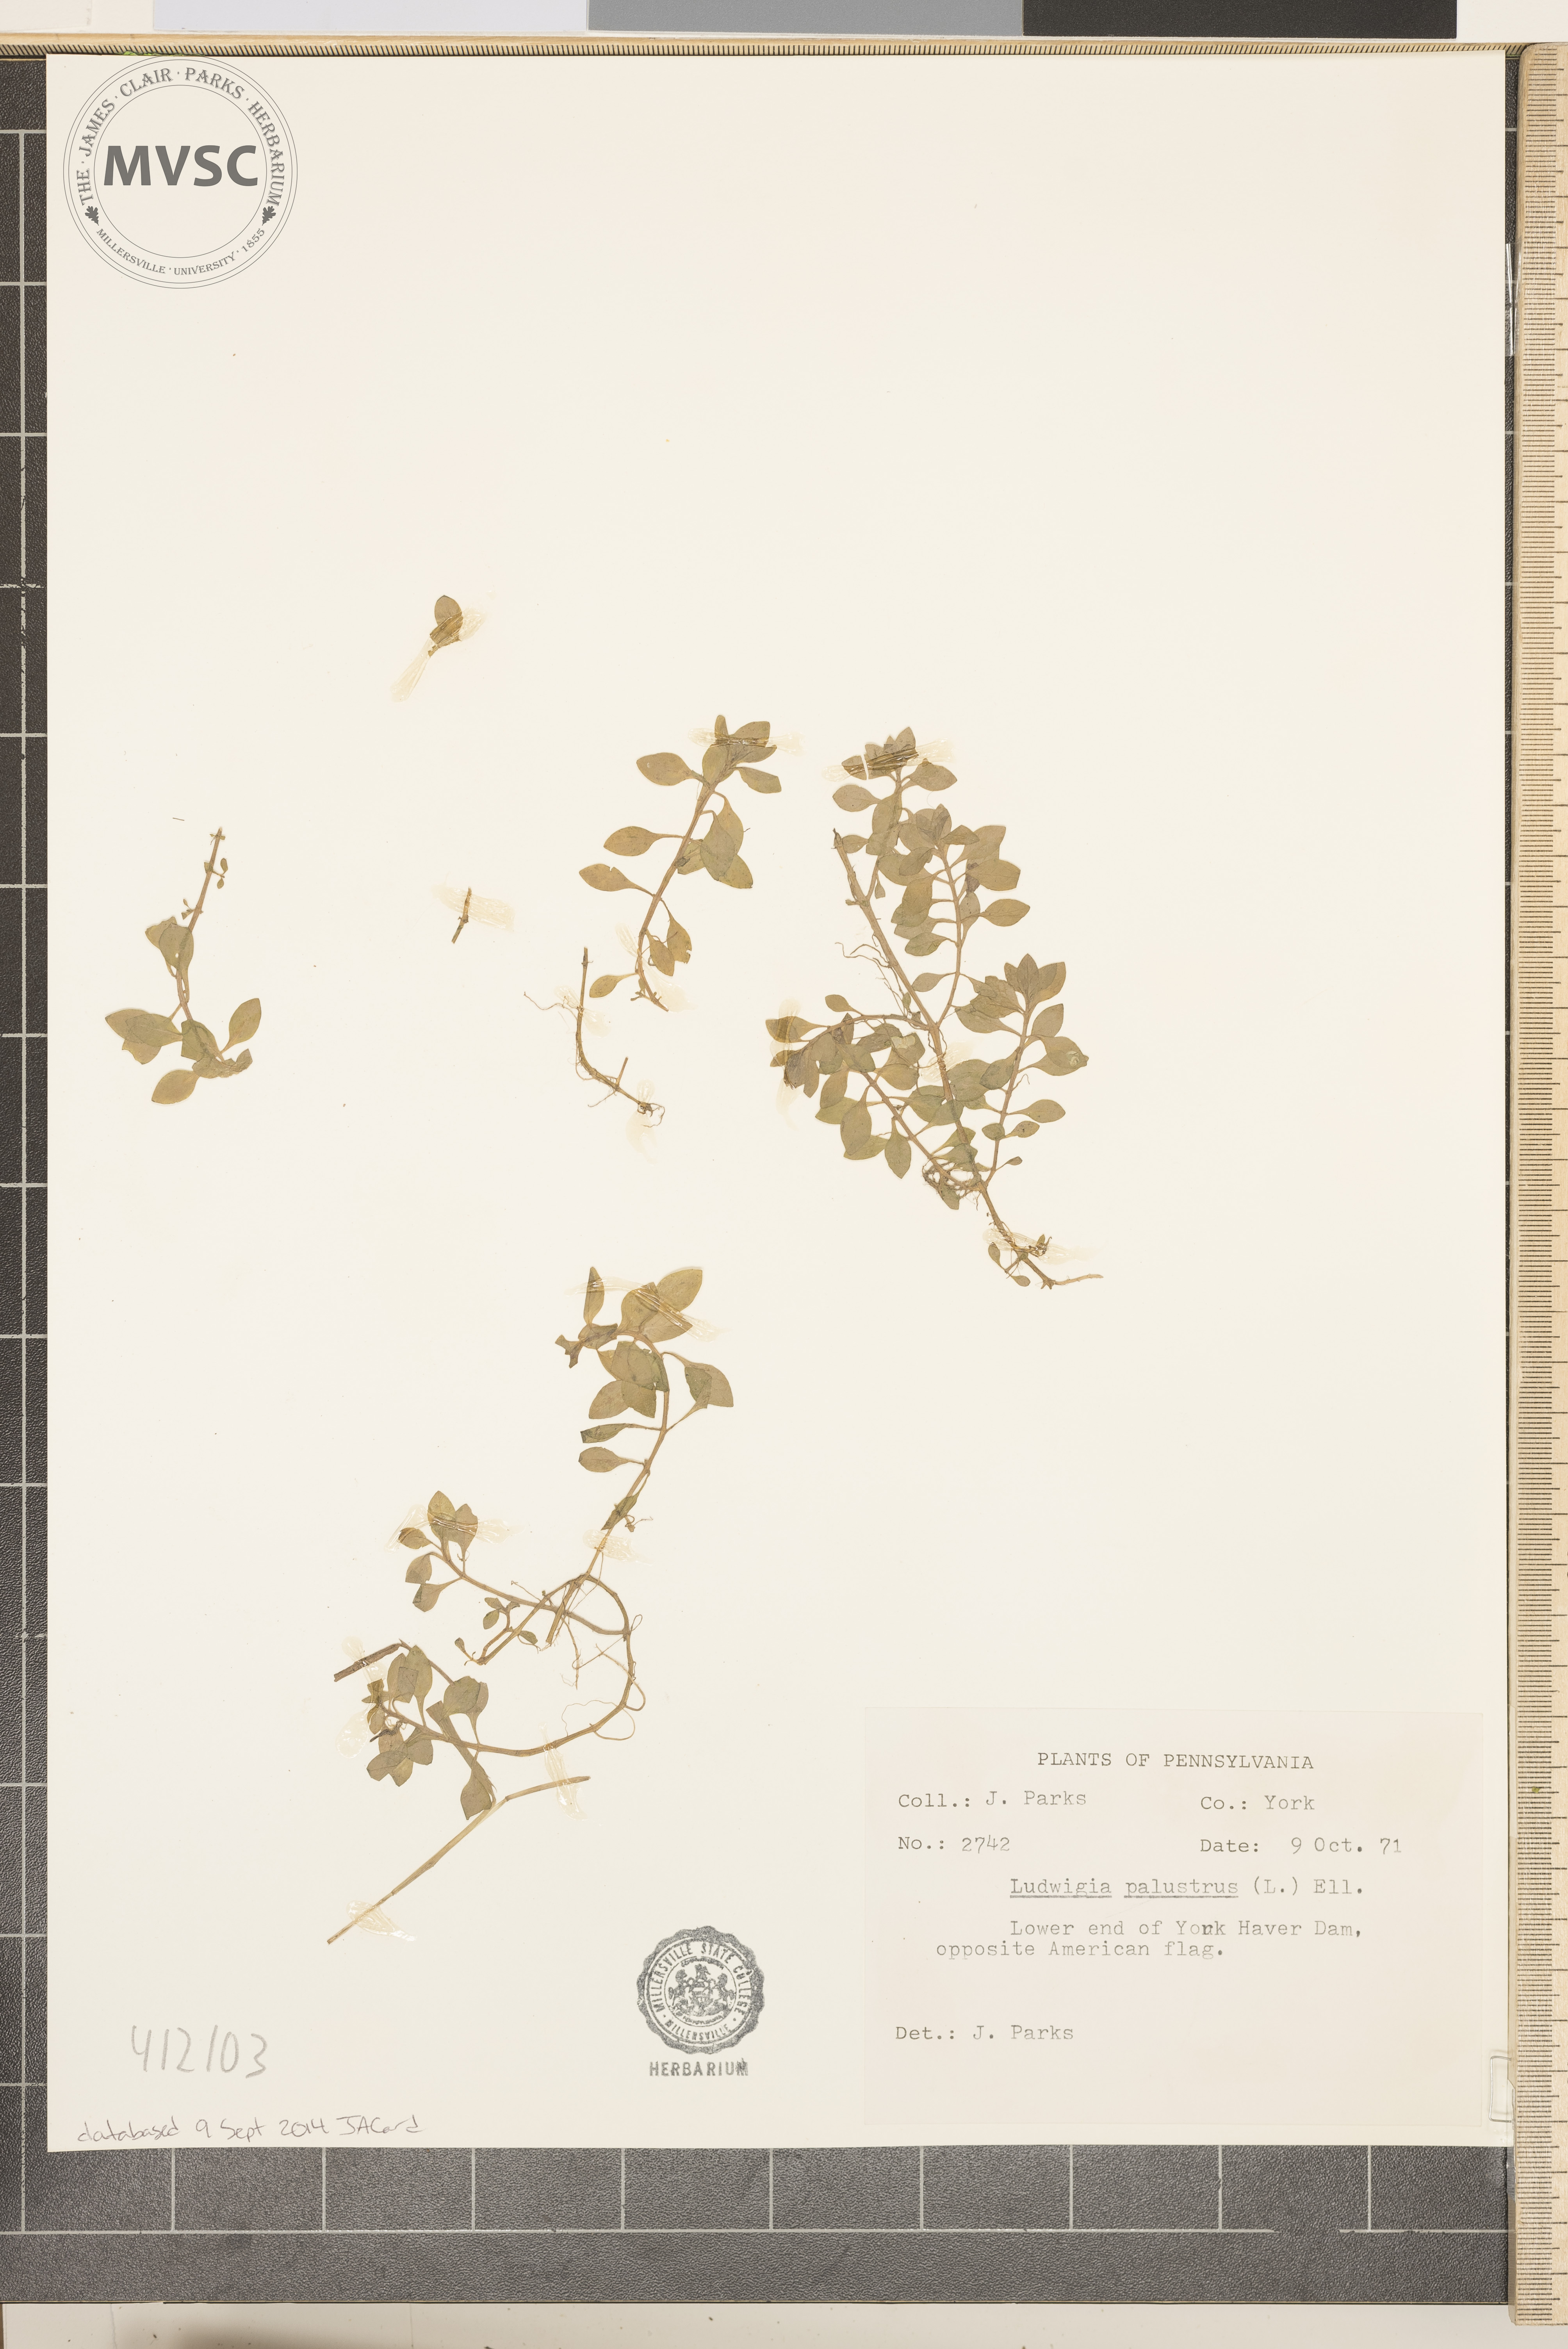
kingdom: Plantae
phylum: Tracheophyta
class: Magnoliopsida
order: Myrtales
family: Onagraceae
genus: Ludwigia
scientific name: Ludwigia palustris
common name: Hampshire-purslane
